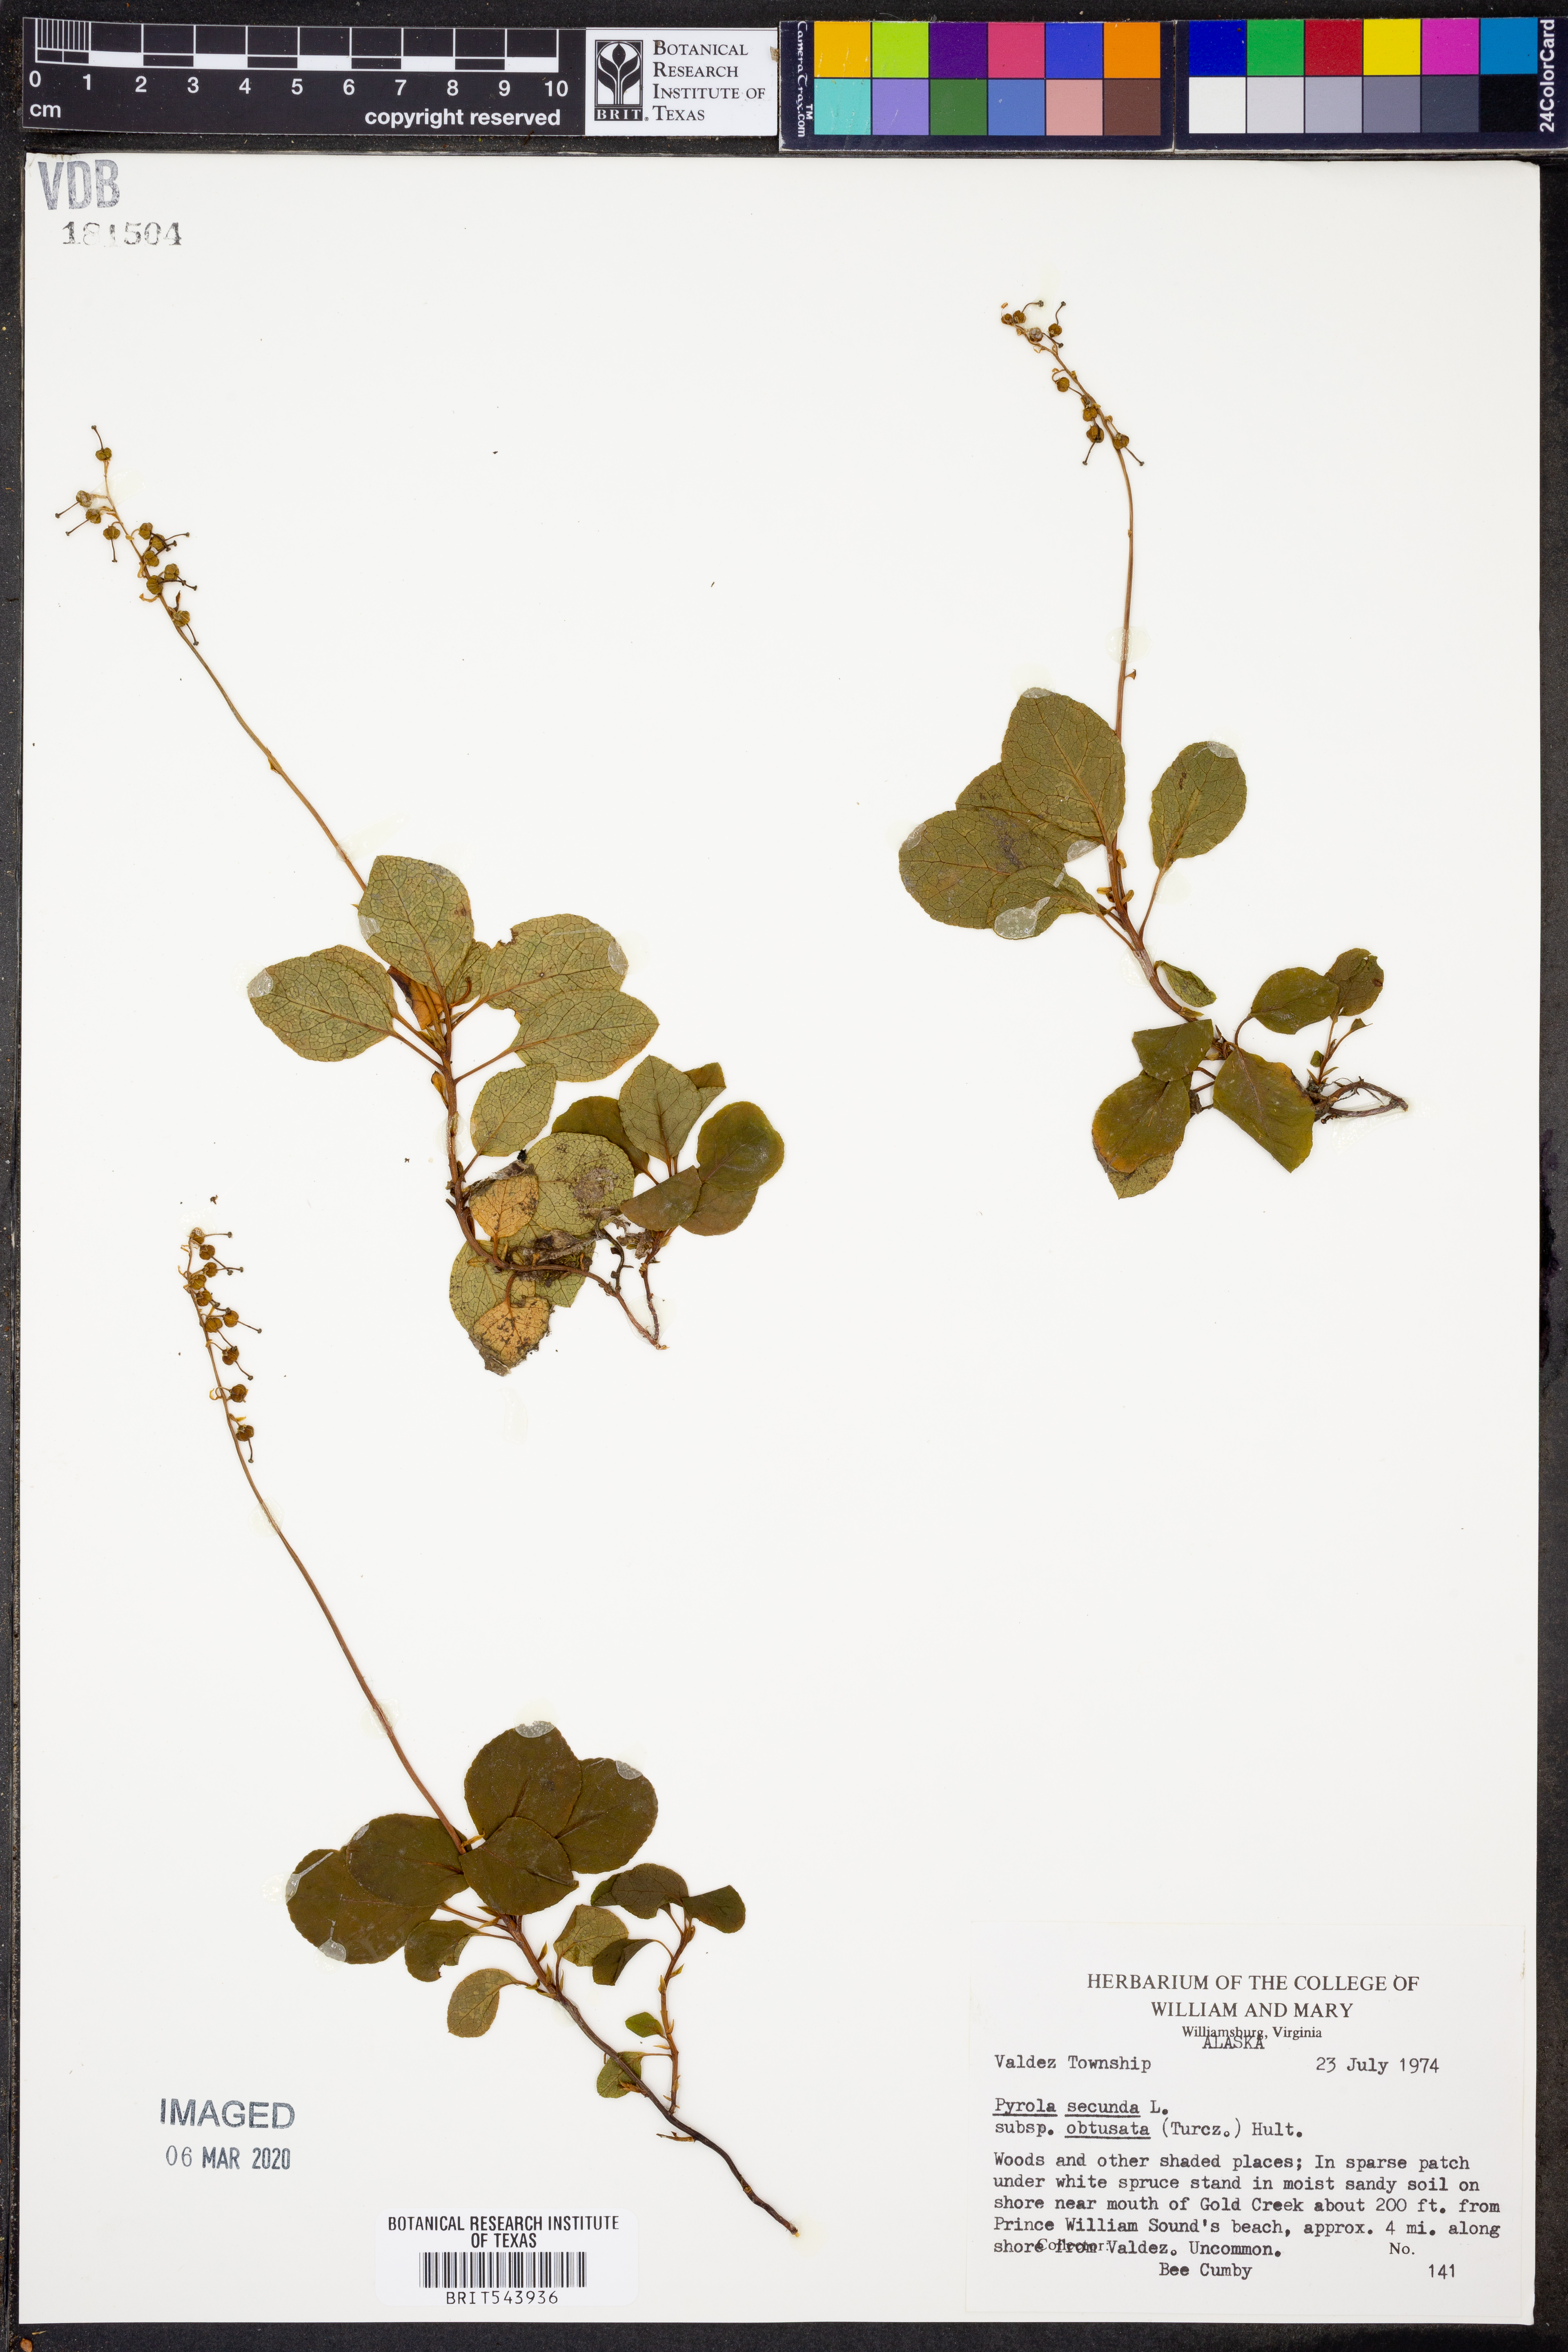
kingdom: Plantae
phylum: Tracheophyta
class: Magnoliopsida
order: Ericales
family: Ericaceae
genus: Orthilia
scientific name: Orthilia secunda
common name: One-sided orthilia
